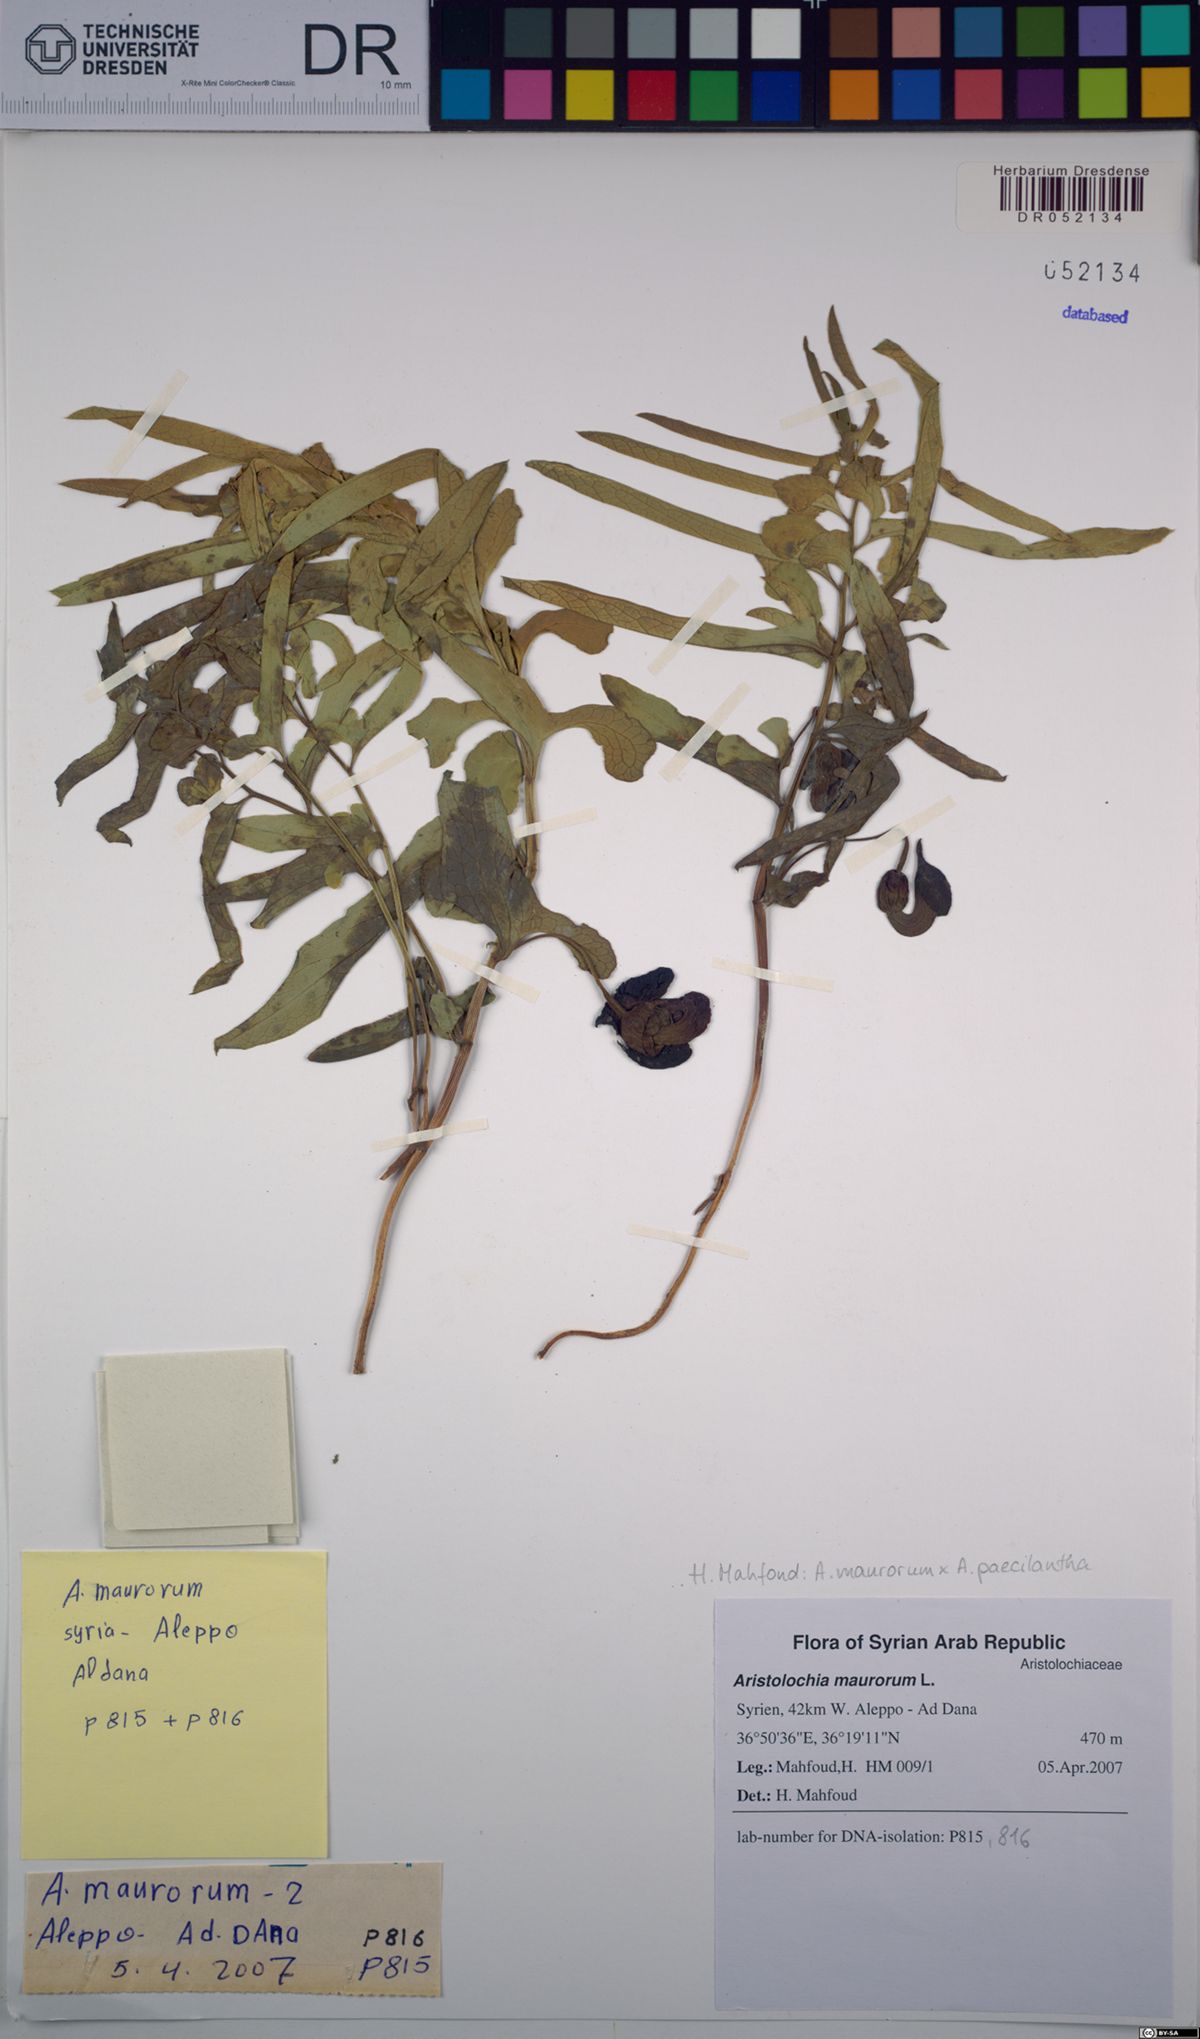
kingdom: Plantae
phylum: Tracheophyta
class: Magnoliopsida
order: Piperales
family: Aristolochiaceae
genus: Aristolochia
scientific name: Aristolochia maurorum
